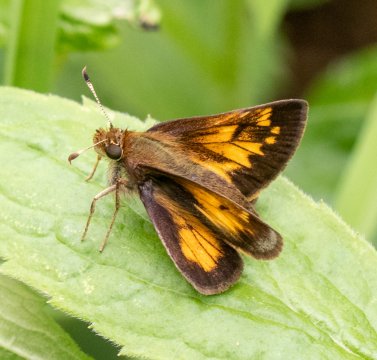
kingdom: Animalia
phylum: Arthropoda
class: Insecta
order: Lepidoptera
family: Hesperiidae
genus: Lon
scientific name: Lon hobomok
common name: Hobomok Skipper
